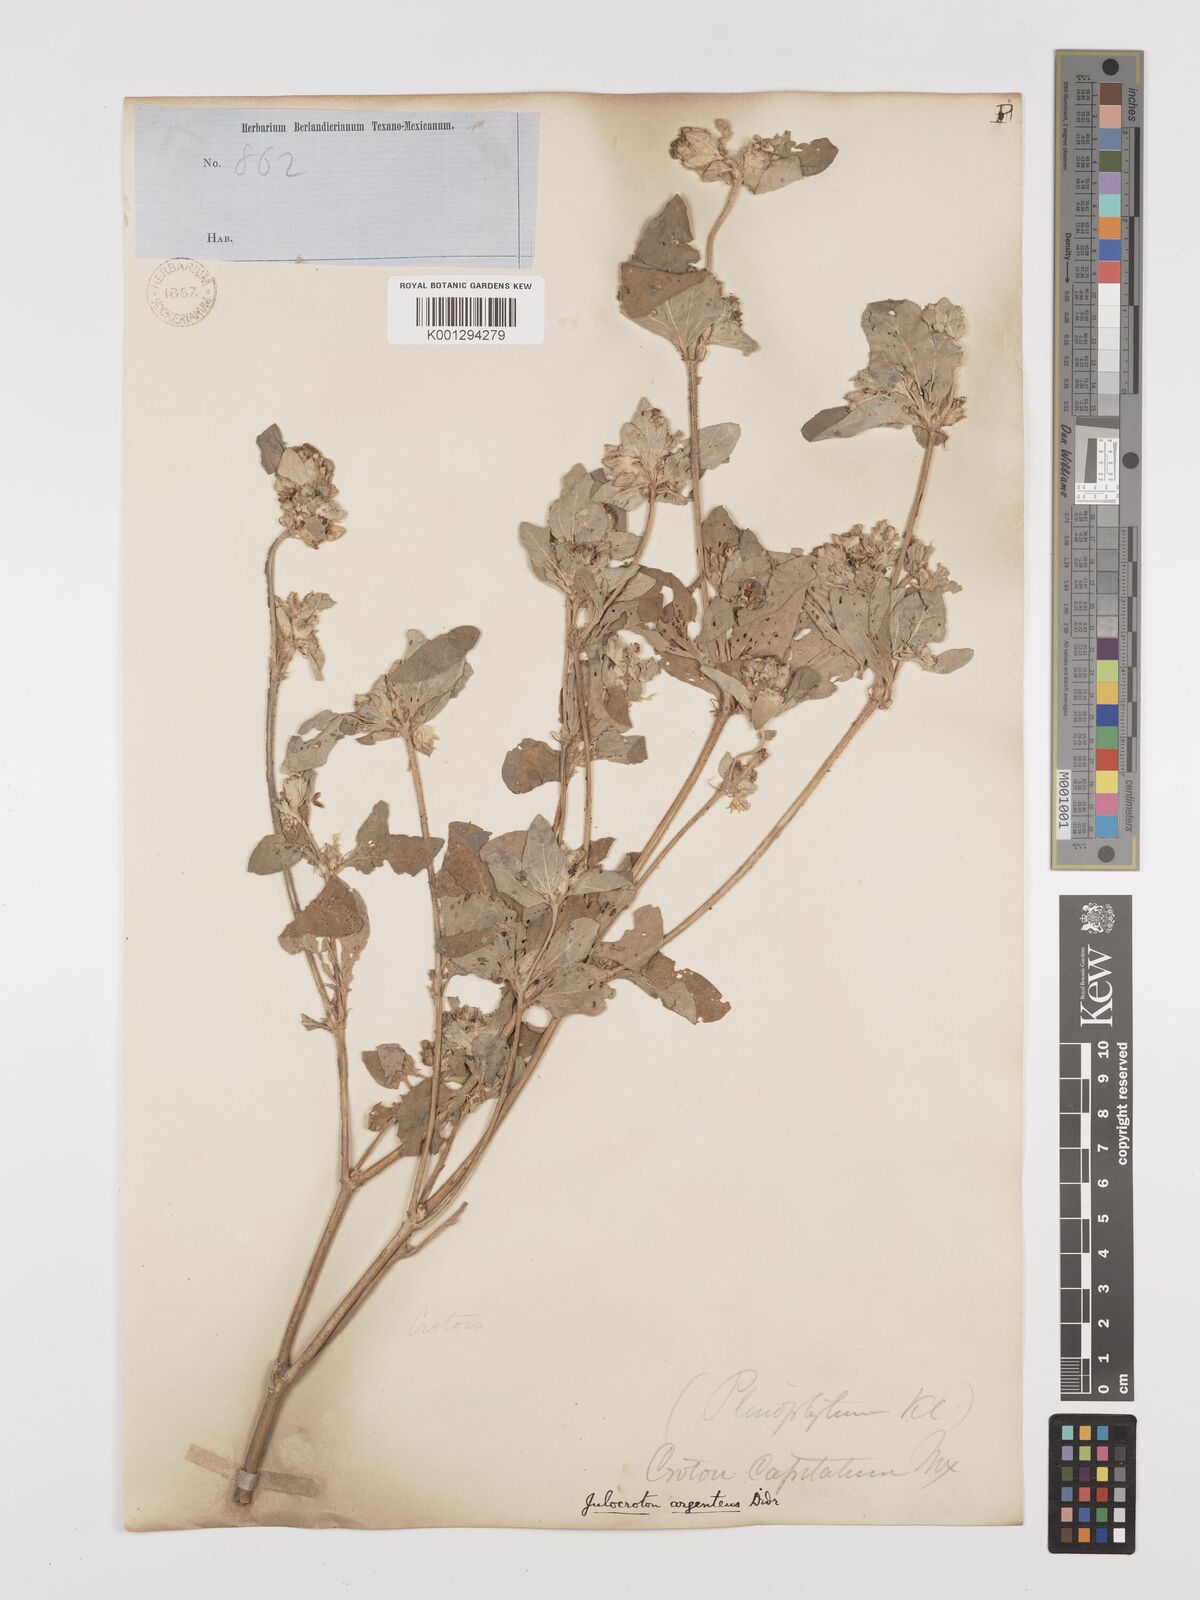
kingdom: Plantae
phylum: Tracheophyta
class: Magnoliopsida
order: Malpighiales
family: Euphorbiaceae
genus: Croton
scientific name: Croton argenteus
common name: Silver july croton
